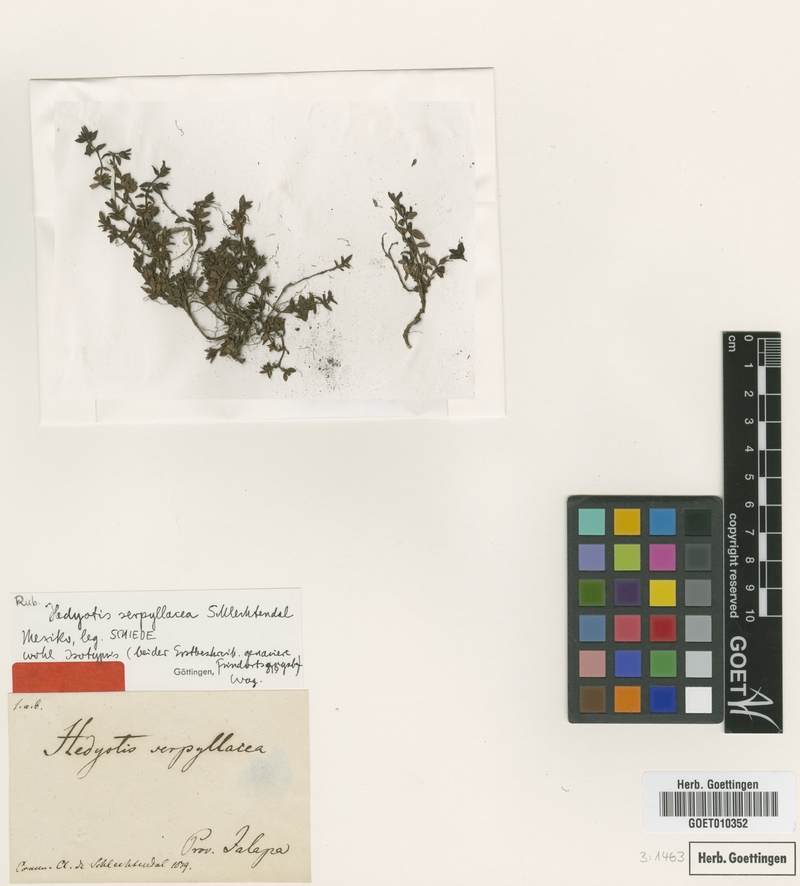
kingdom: Plantae
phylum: Tracheophyta
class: Magnoliopsida
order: Gentianales
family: Rubiaceae
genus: Arcytophyllum
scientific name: Arcytophyllum serpyllaceum
